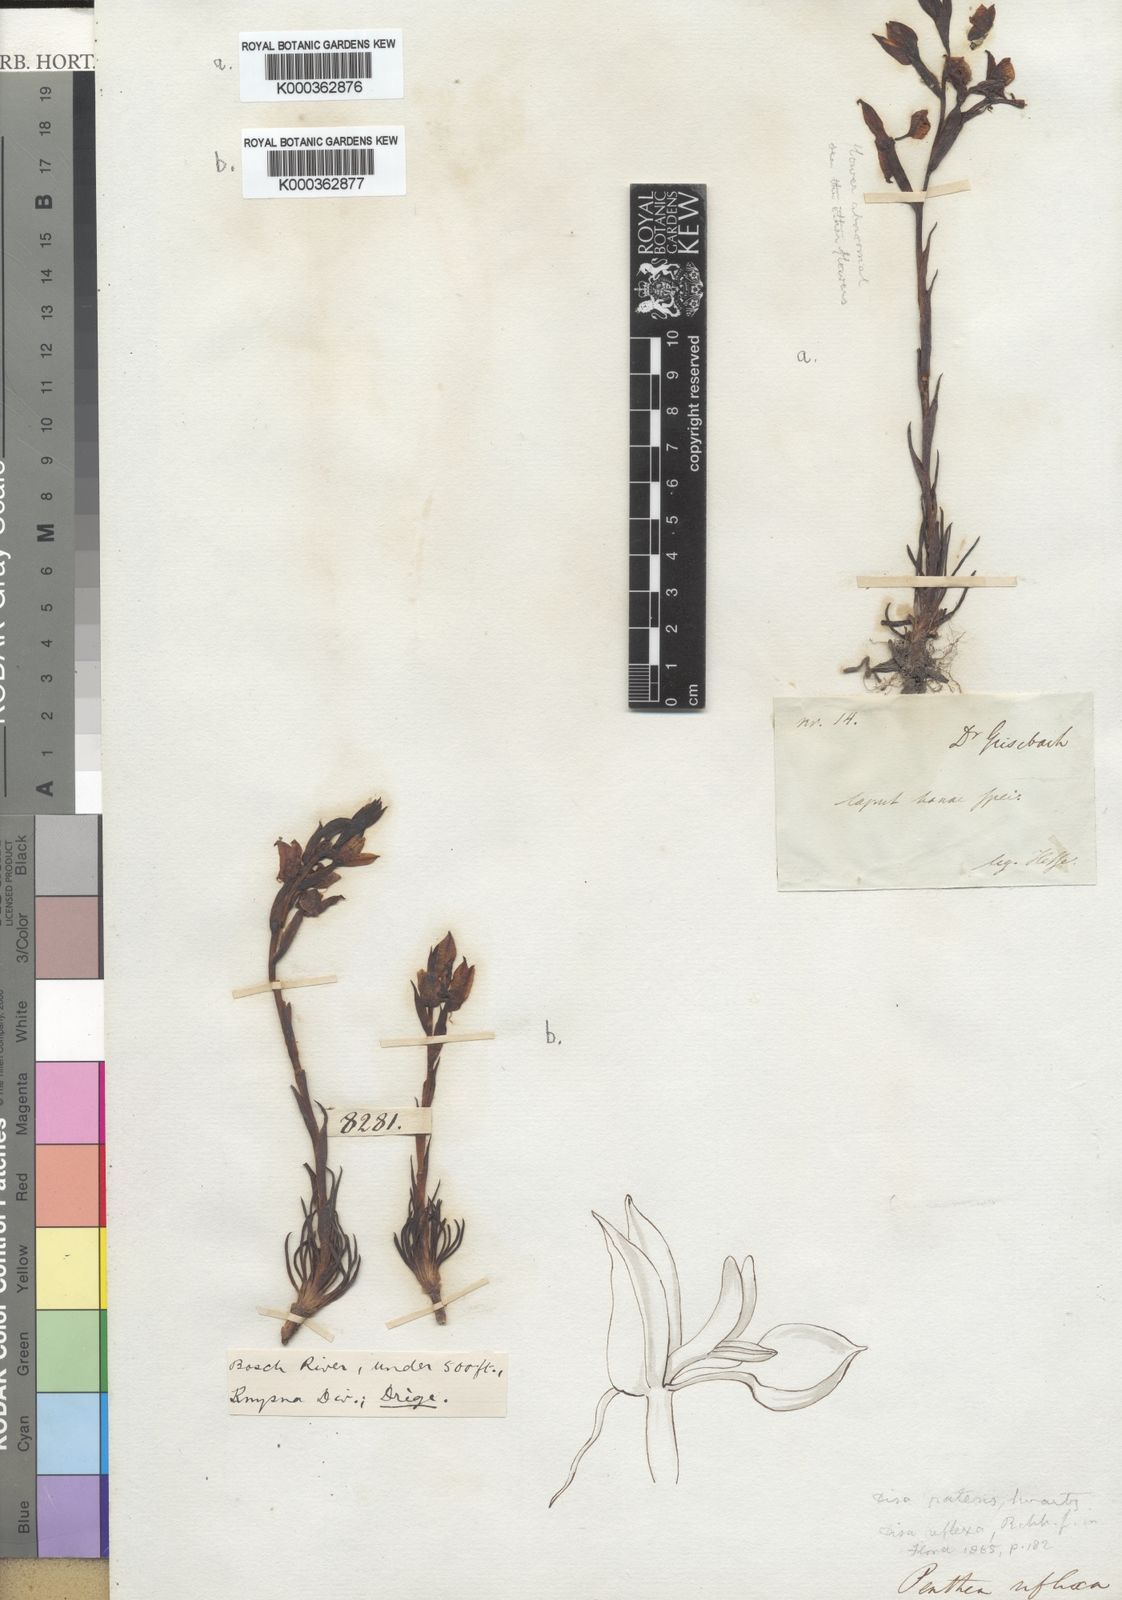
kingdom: Plantae
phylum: Tracheophyta
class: Liliopsida
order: Asparagales
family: Orchidaceae
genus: Disa
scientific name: Disa filicornis
